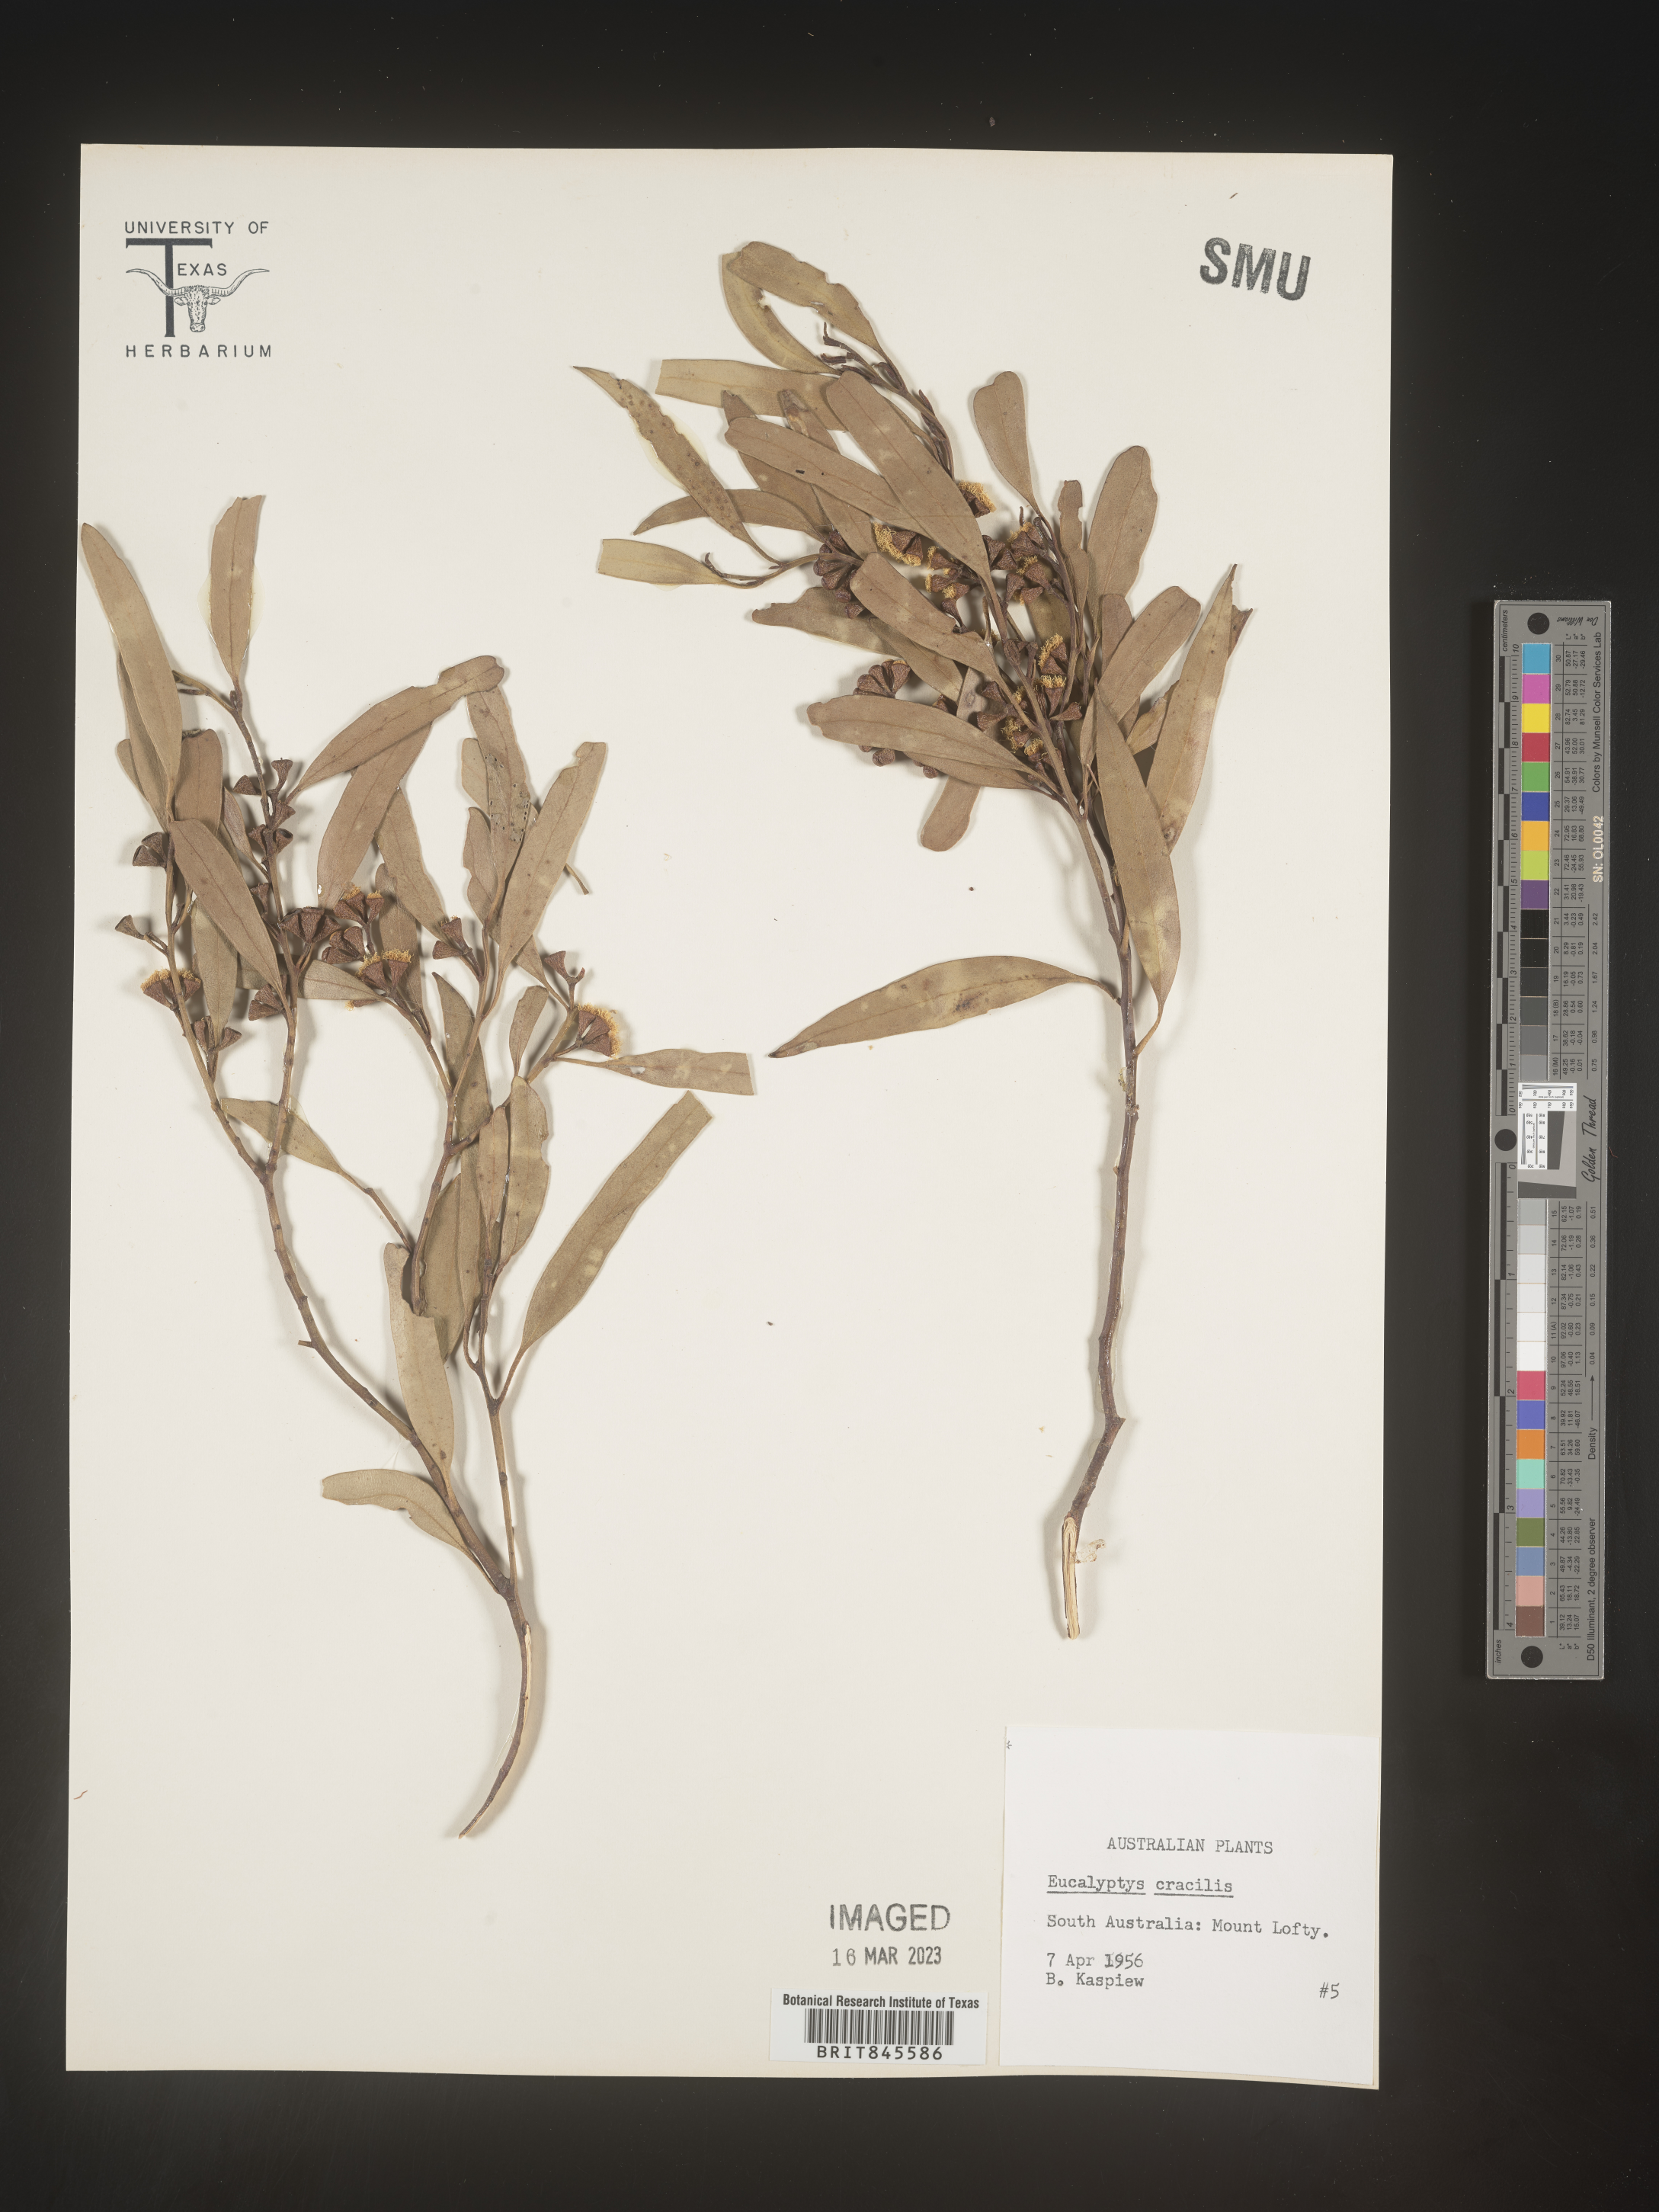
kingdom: Plantae
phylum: Tracheophyta
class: Magnoliopsida
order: Myrtales
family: Myrtaceae
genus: Eucalyptus
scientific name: Eucalyptus
